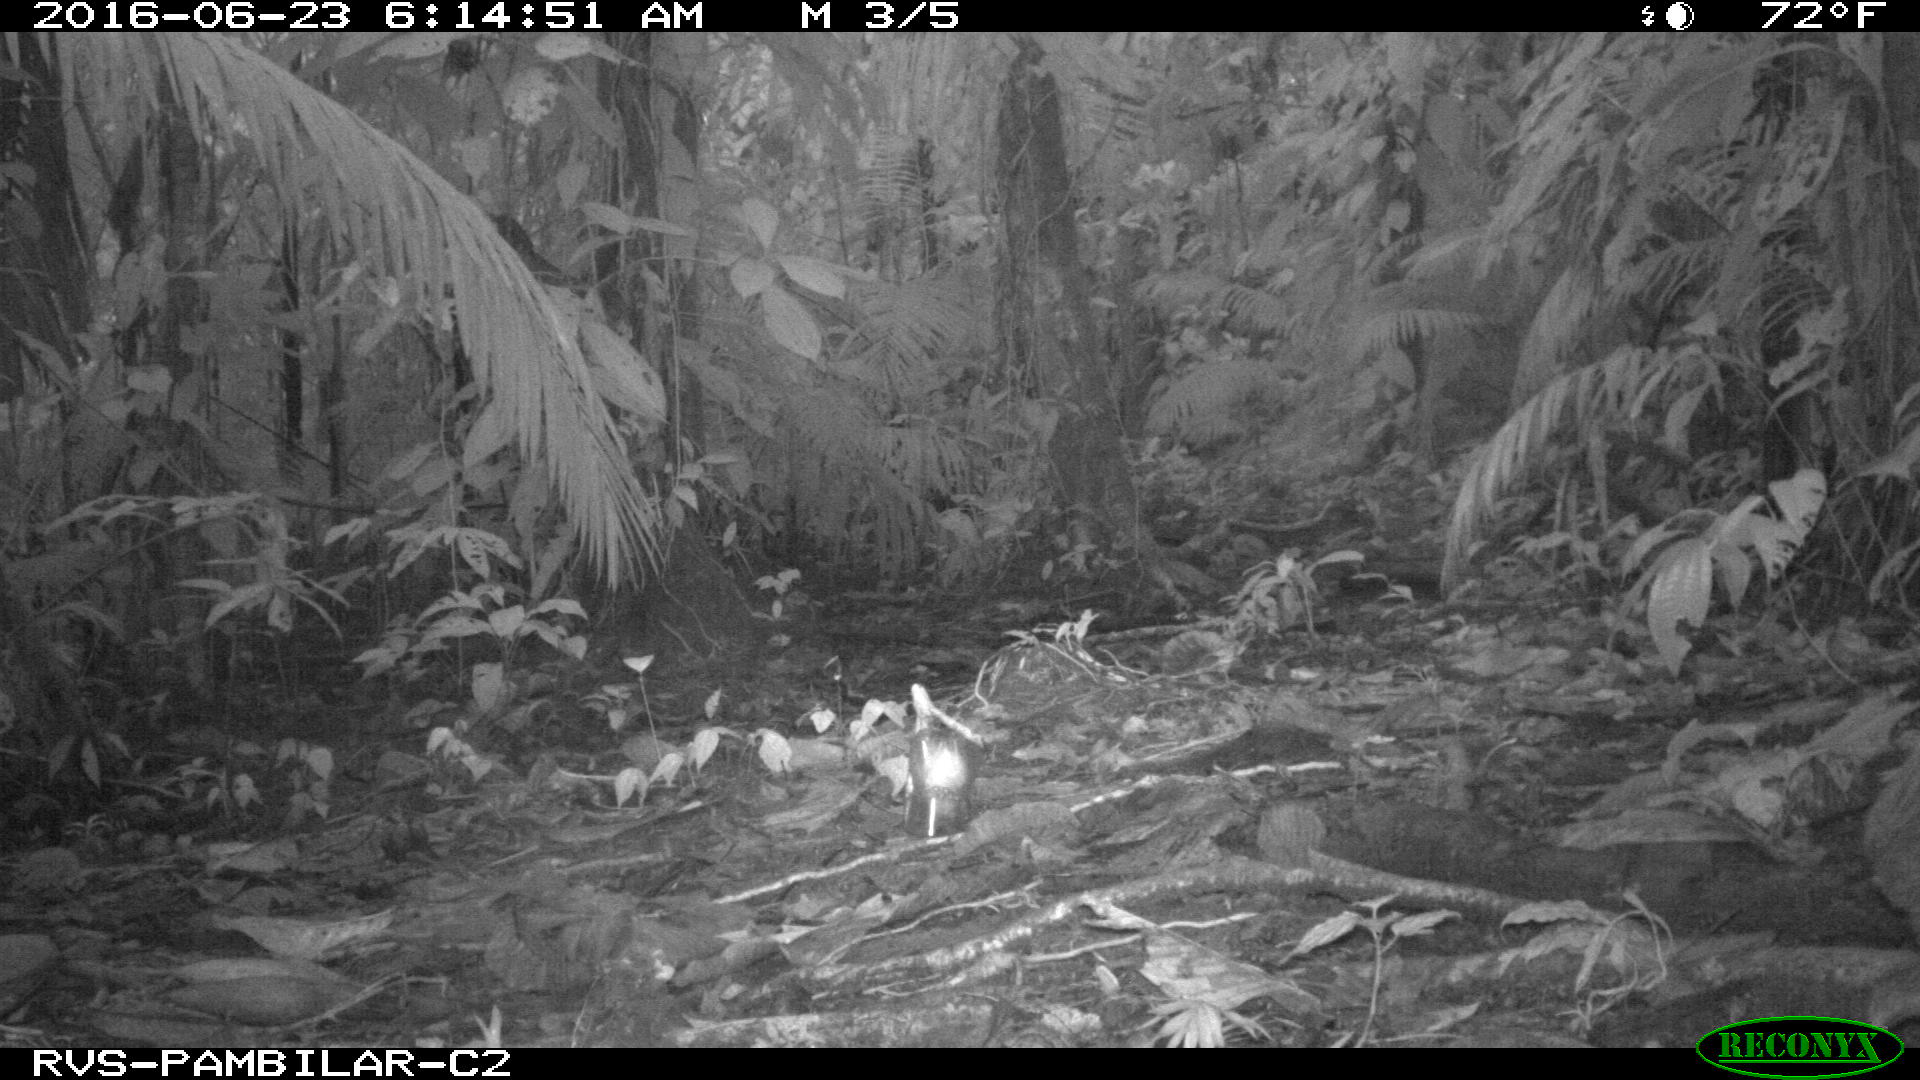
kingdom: Animalia
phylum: Chordata
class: Mammalia
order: Rodentia
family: Dasyproctidae
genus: Dasyprocta
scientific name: Dasyprocta punctata
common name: Central american agouti
